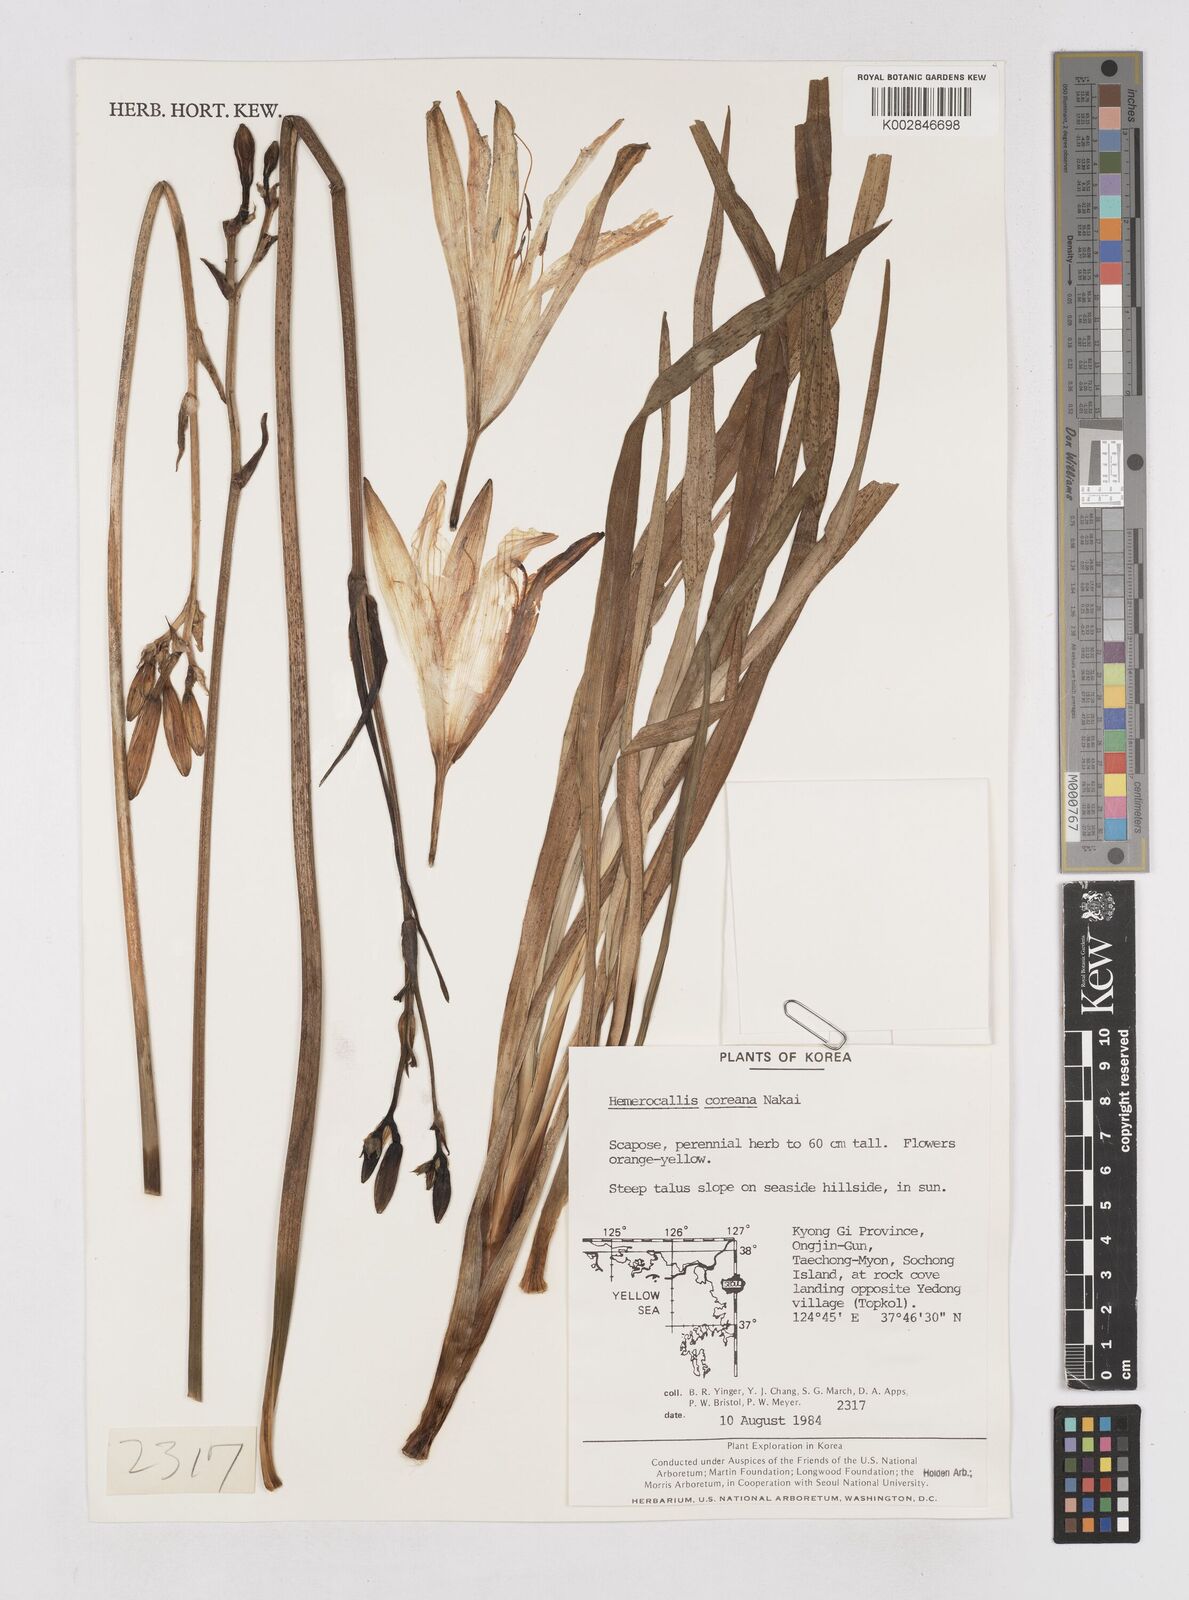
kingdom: Plantae
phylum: Tracheophyta
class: Liliopsida
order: Asparagales
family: Asphodelaceae
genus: Hemerocallis
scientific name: Hemerocallis coreana
